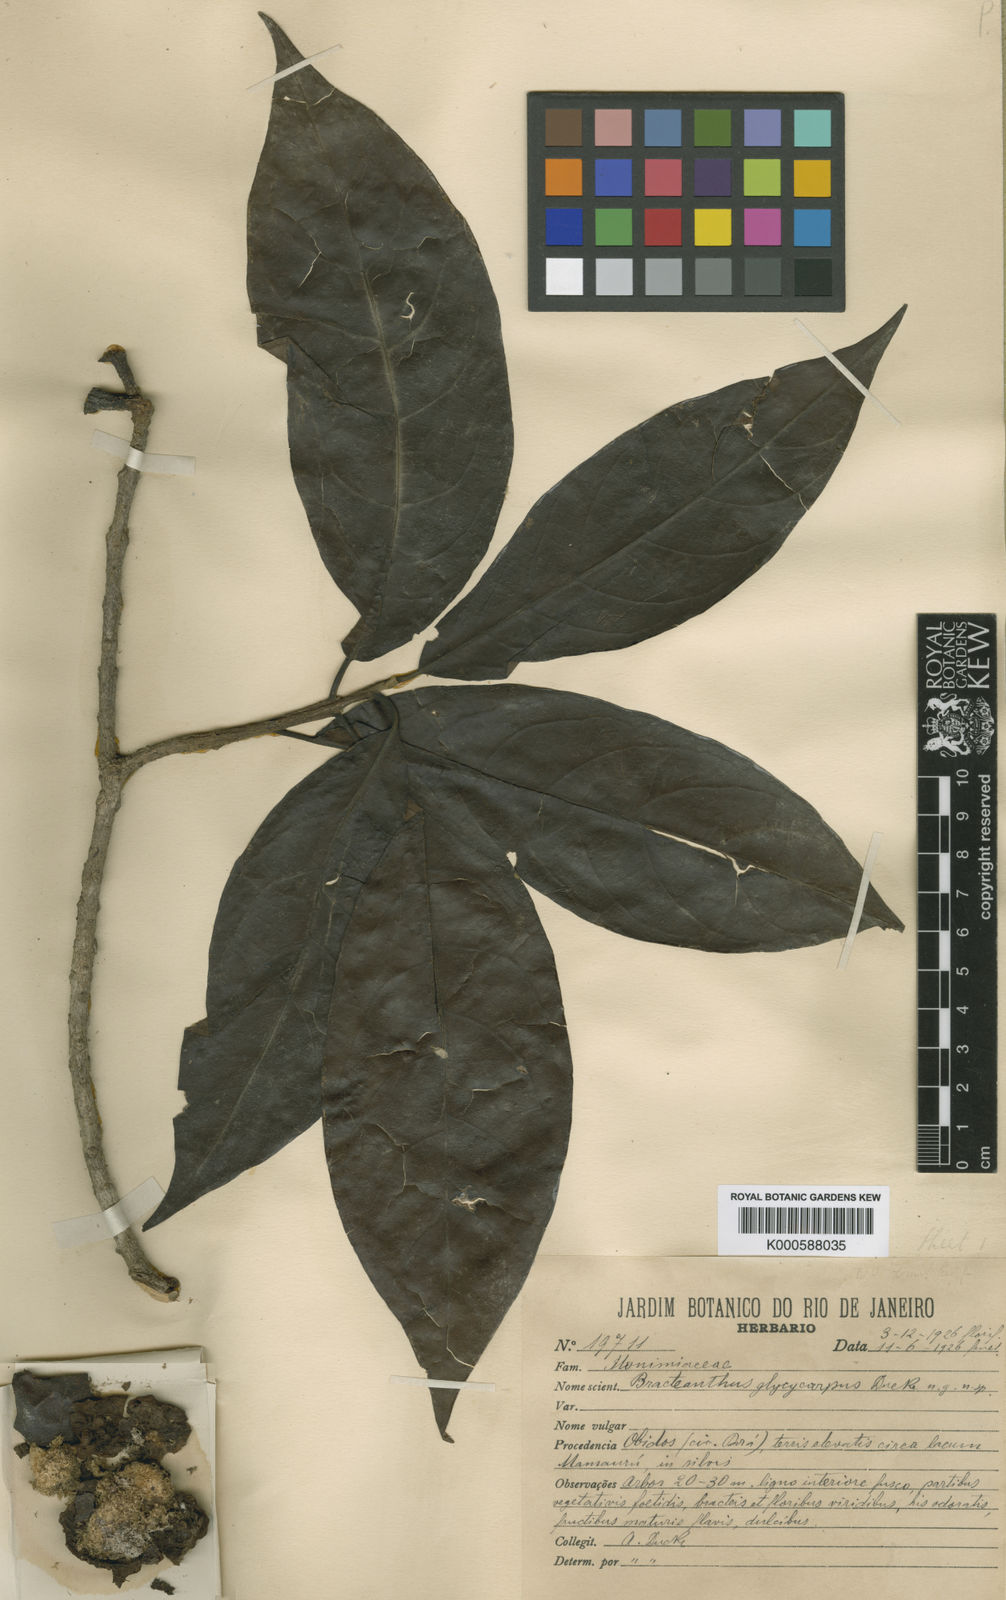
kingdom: Plantae
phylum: Tracheophyta
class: Magnoliopsida
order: Laurales
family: Siparunaceae
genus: Siparuna
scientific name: Siparuna glycycarpa
